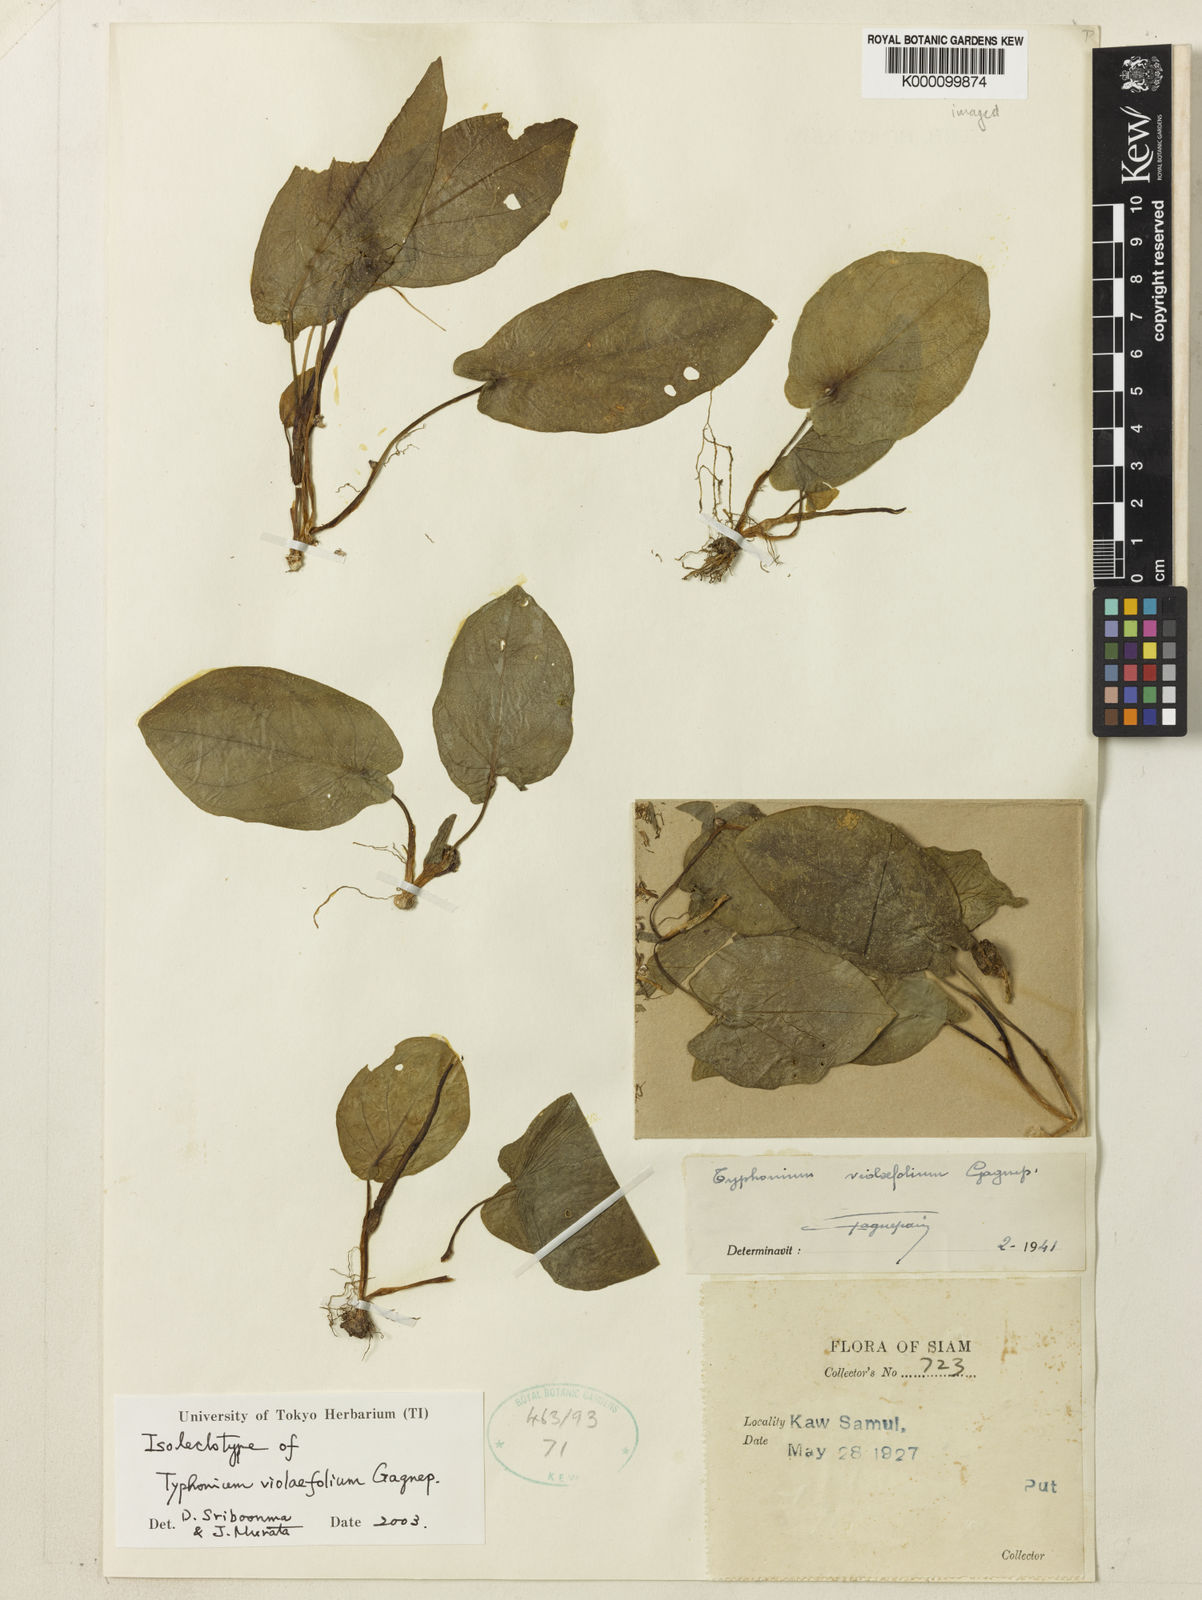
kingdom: Plantae
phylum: Tracheophyta
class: Liliopsida
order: Alismatales
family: Araceae
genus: Typhonium
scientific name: Typhonium violifolium
